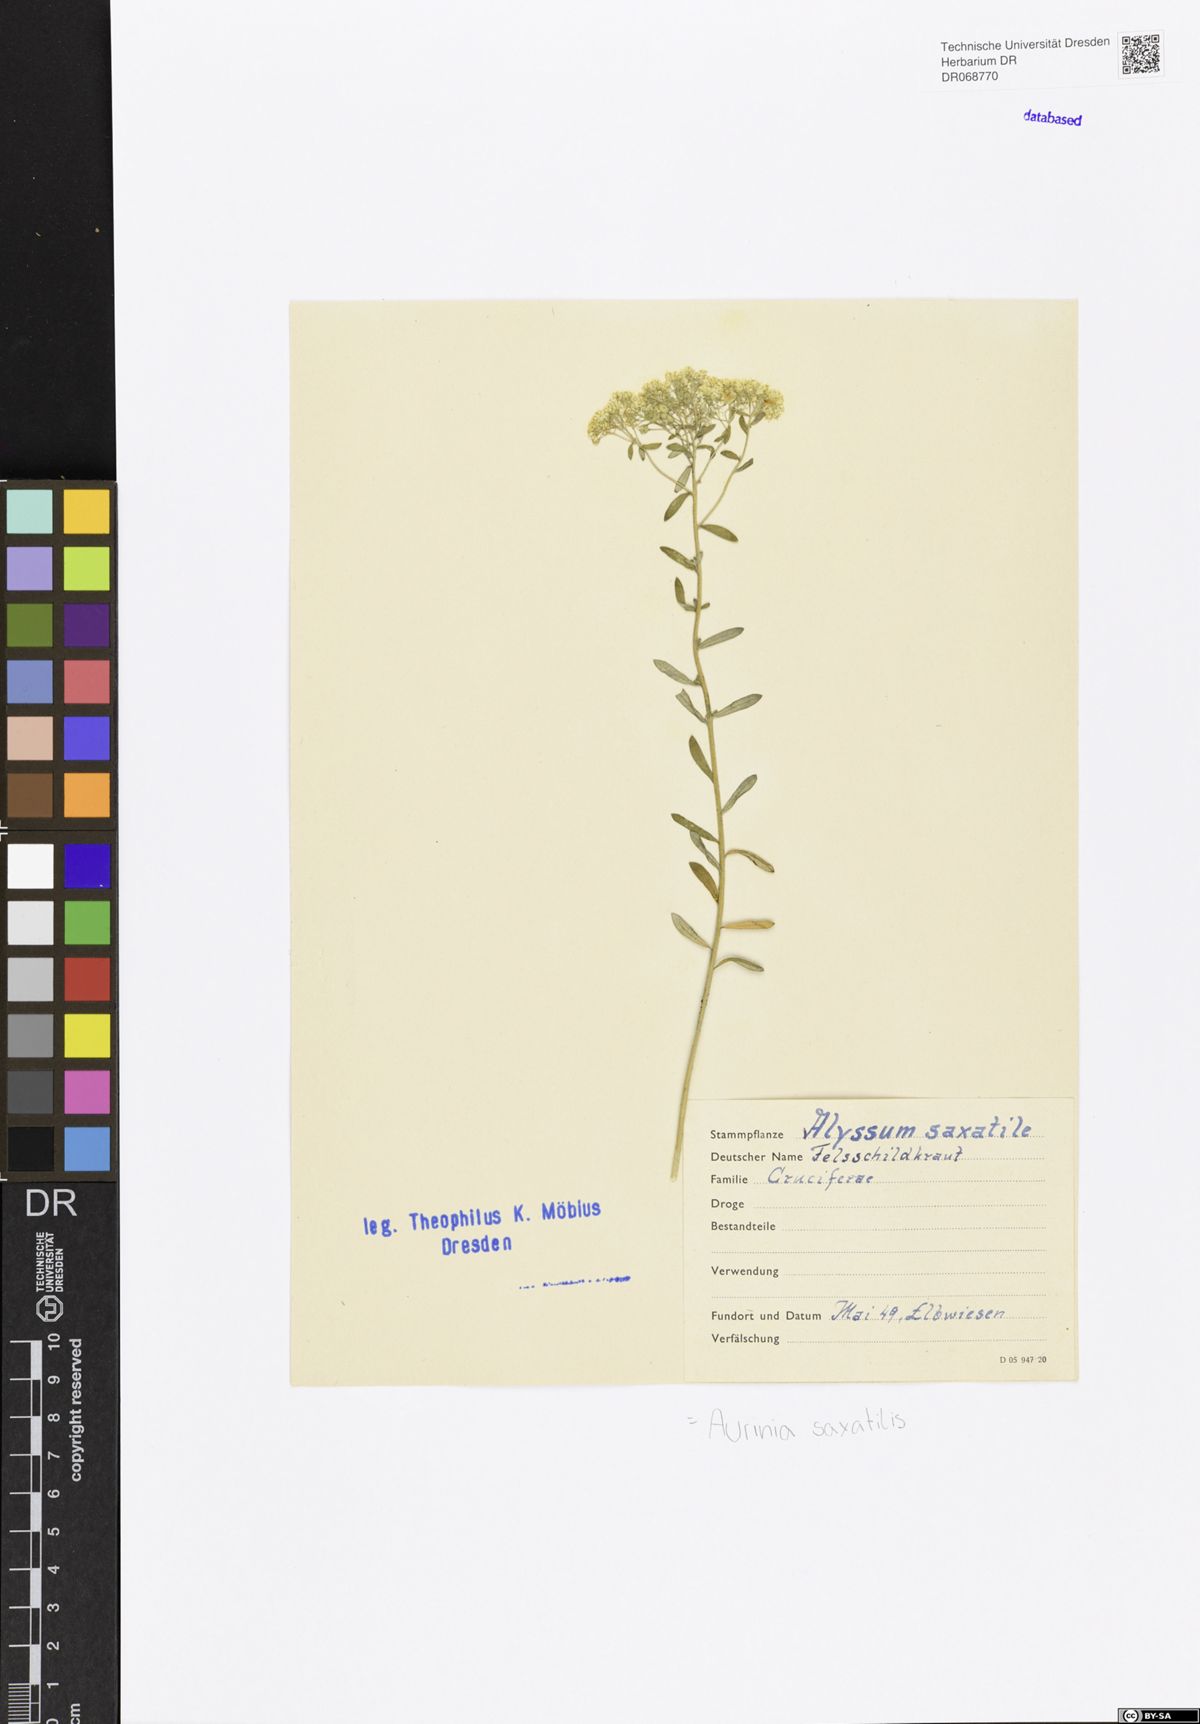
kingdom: Plantae
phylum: Tracheophyta
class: Magnoliopsida
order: Brassicales
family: Brassicaceae
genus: Aurinia
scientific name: Aurinia saxatilis
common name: Golden-tuft alyssum
